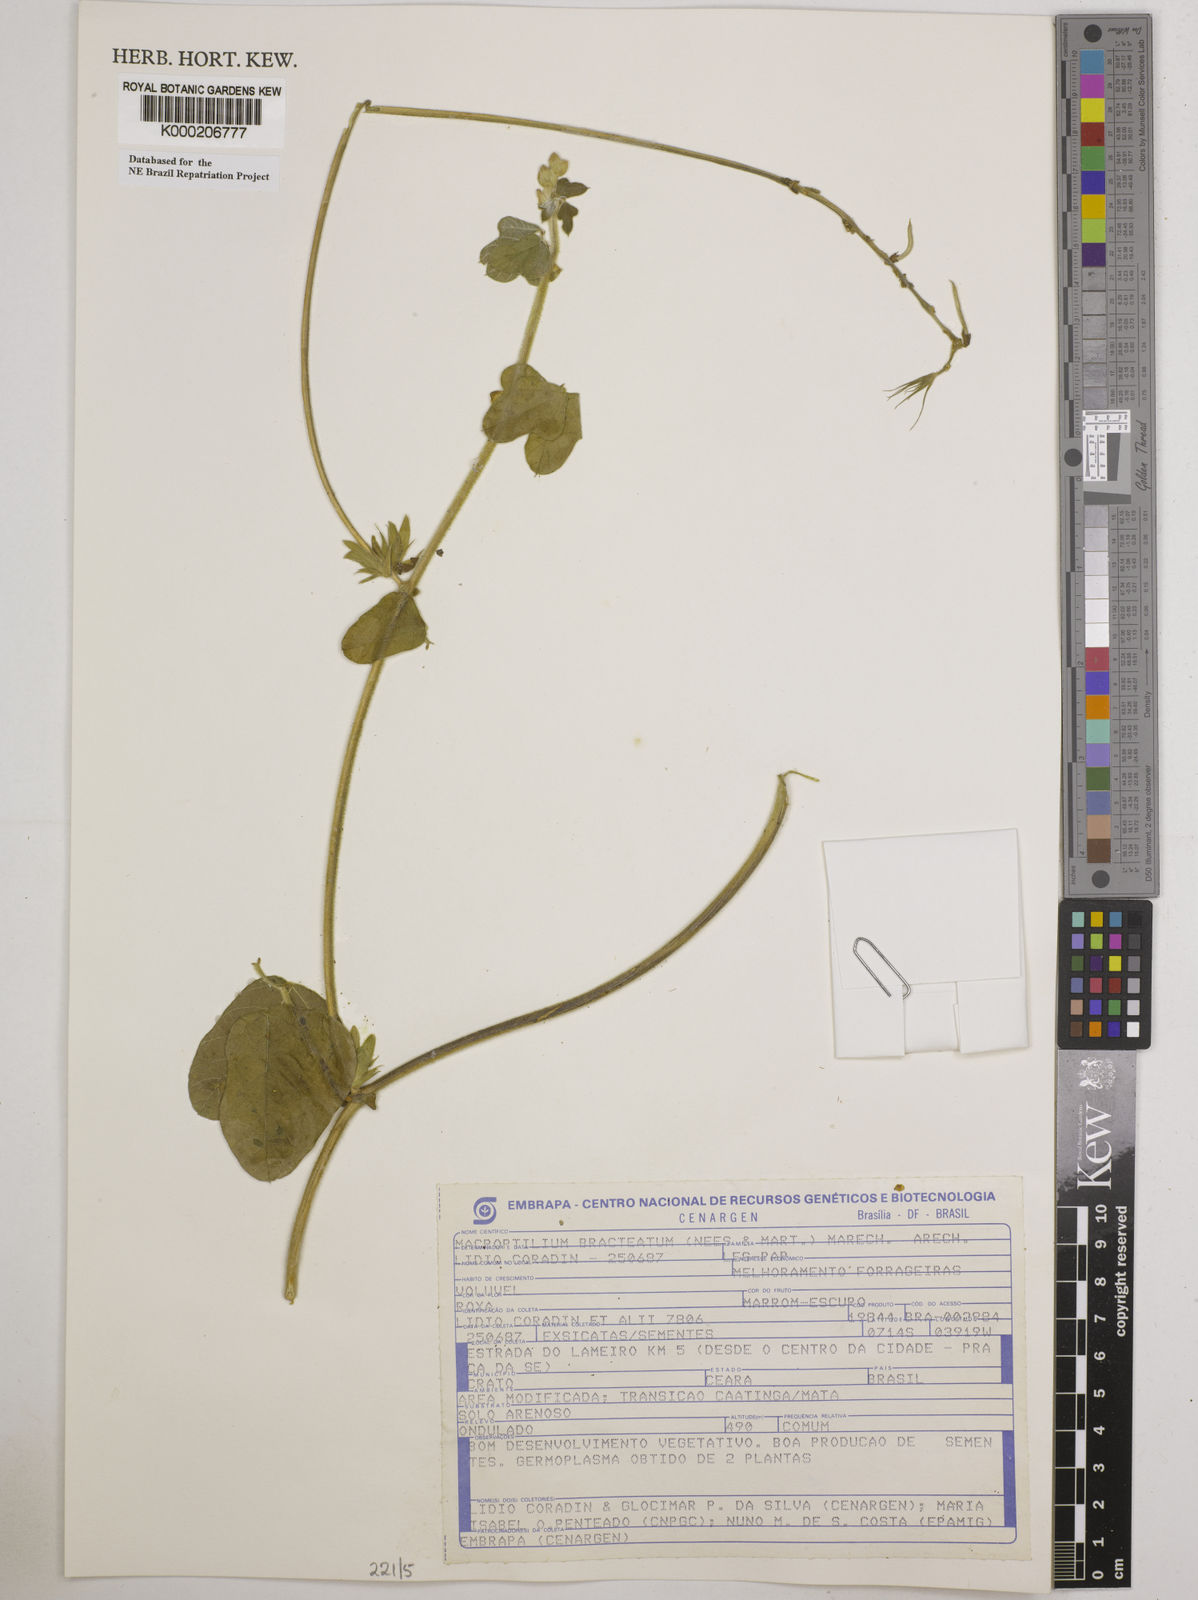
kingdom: Plantae
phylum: Tracheophyta
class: Magnoliopsida
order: Fabales
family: Fabaceae
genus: Macroptilium
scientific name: Macroptilium
